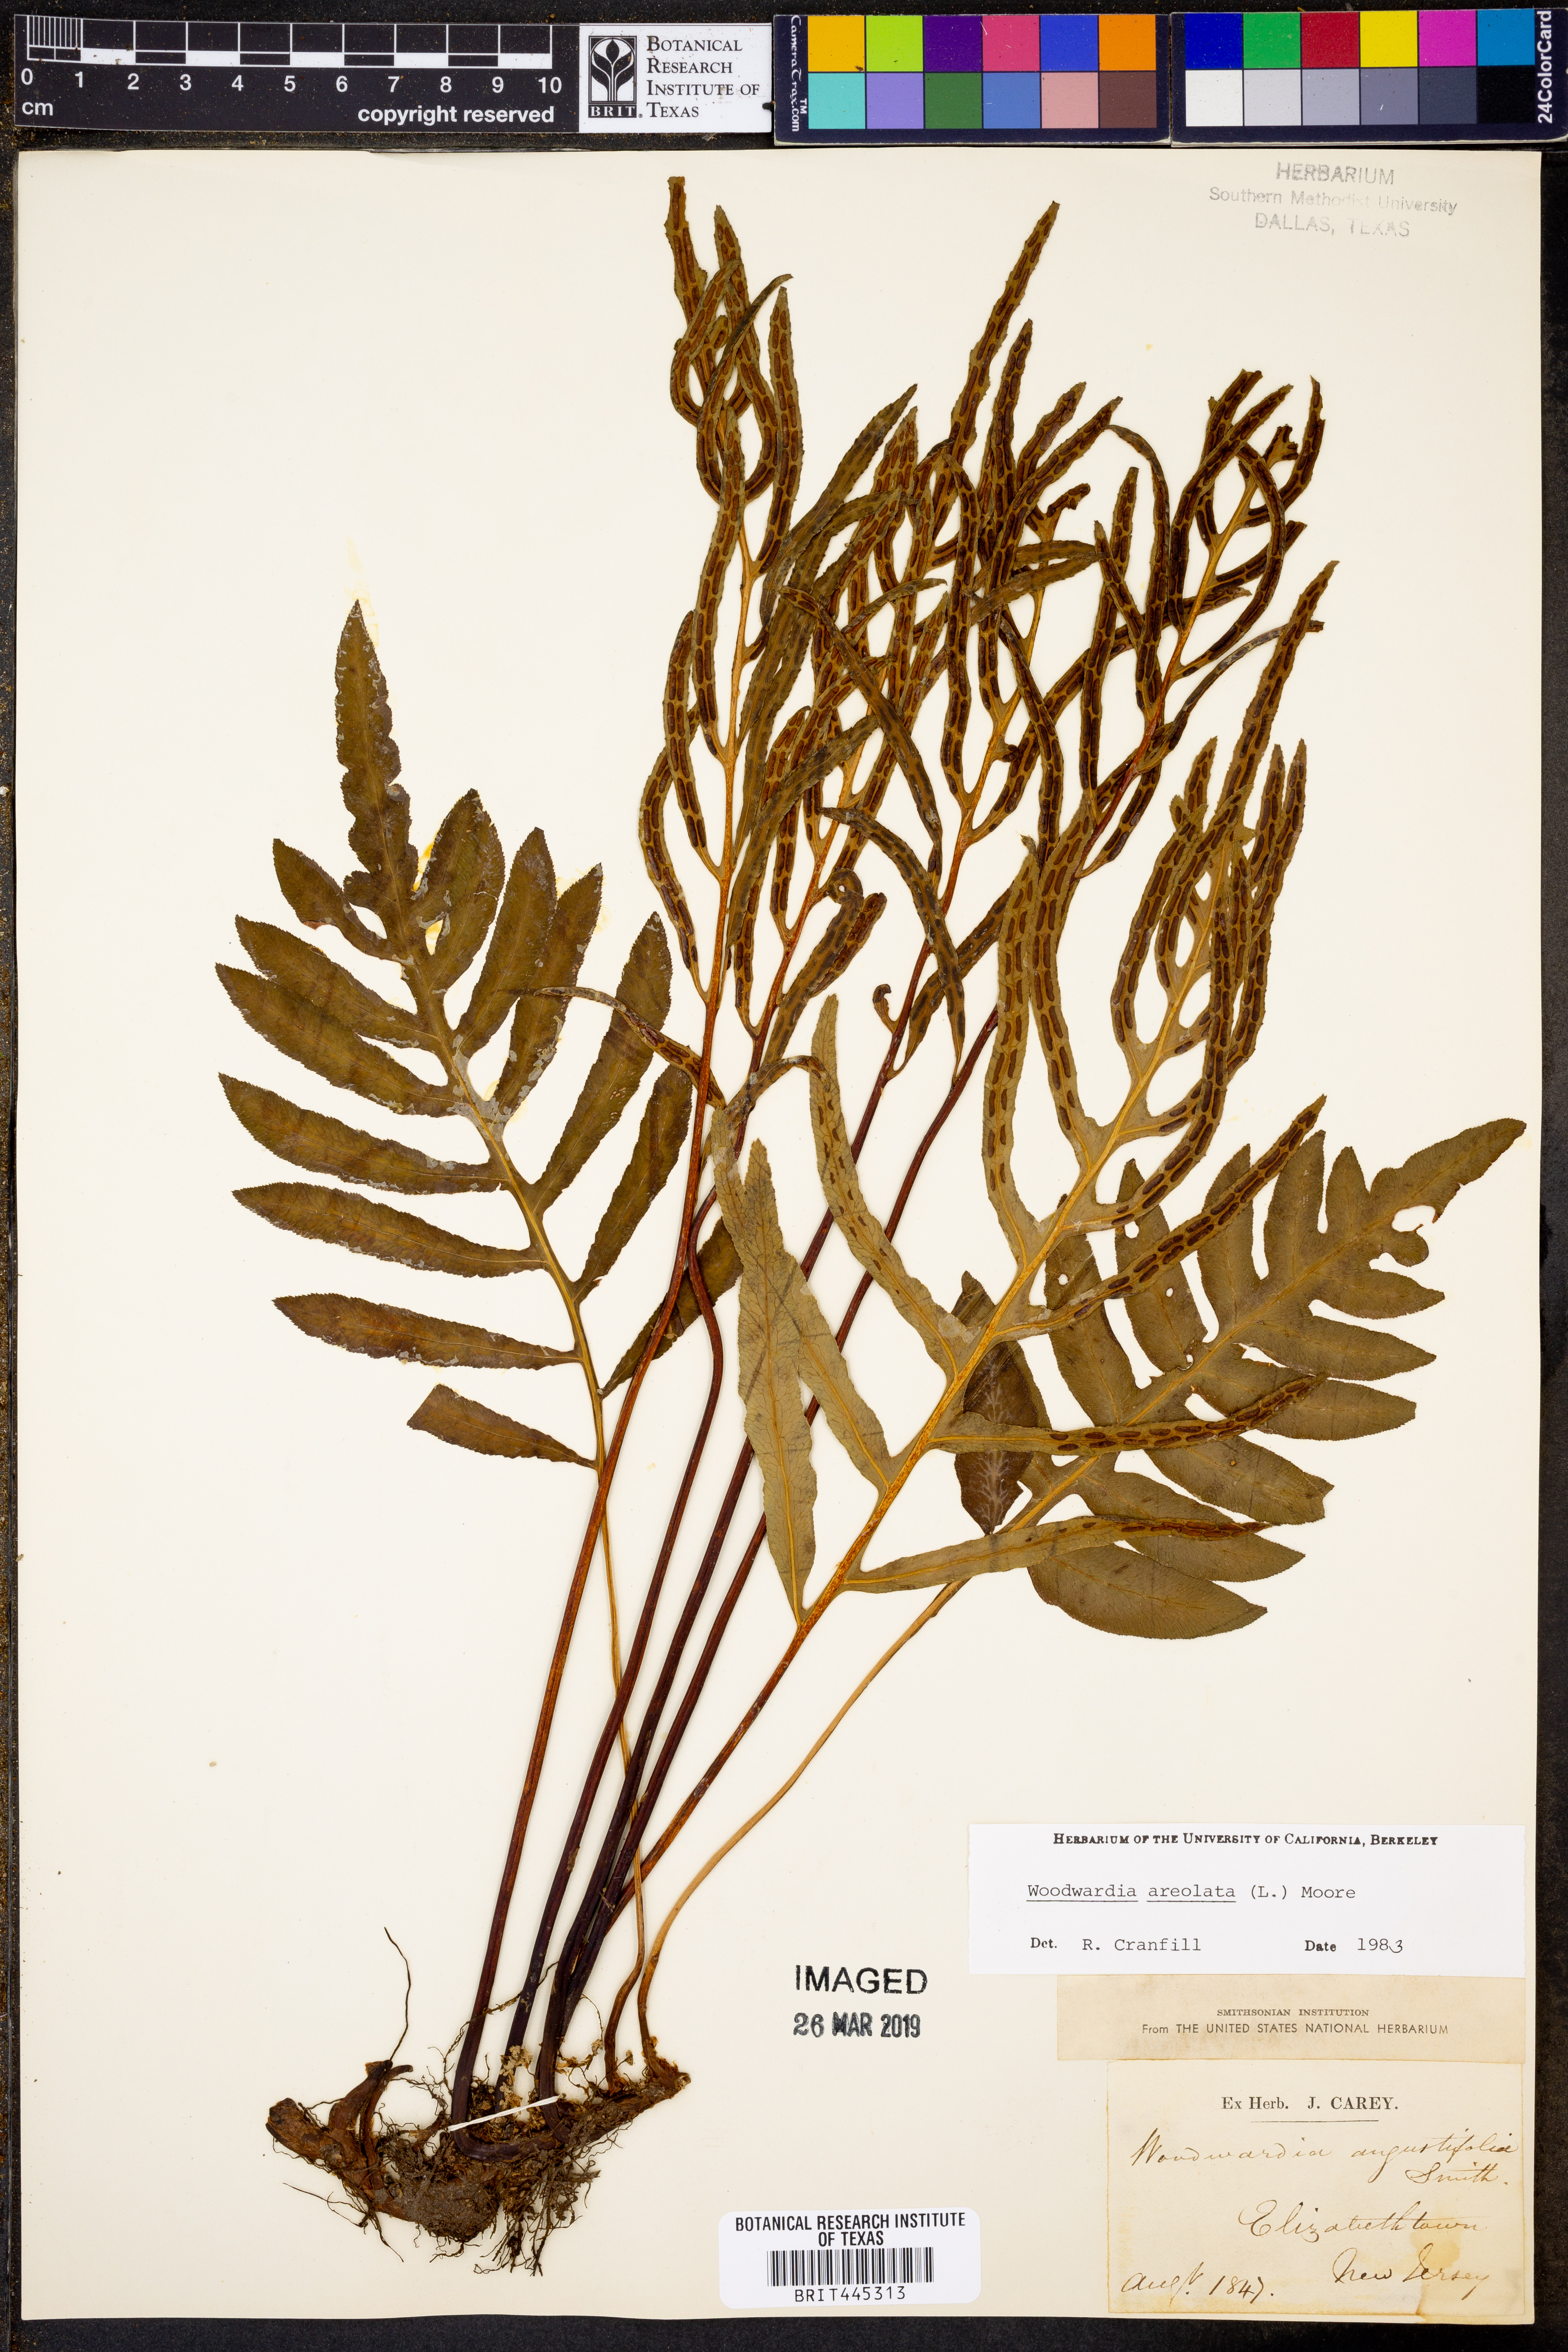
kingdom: Plantae
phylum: Tracheophyta
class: Polypodiopsida
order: Polypodiales
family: Blechnaceae
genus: Lorinseria
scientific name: Lorinseria areolata
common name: Dwarf chain fern
